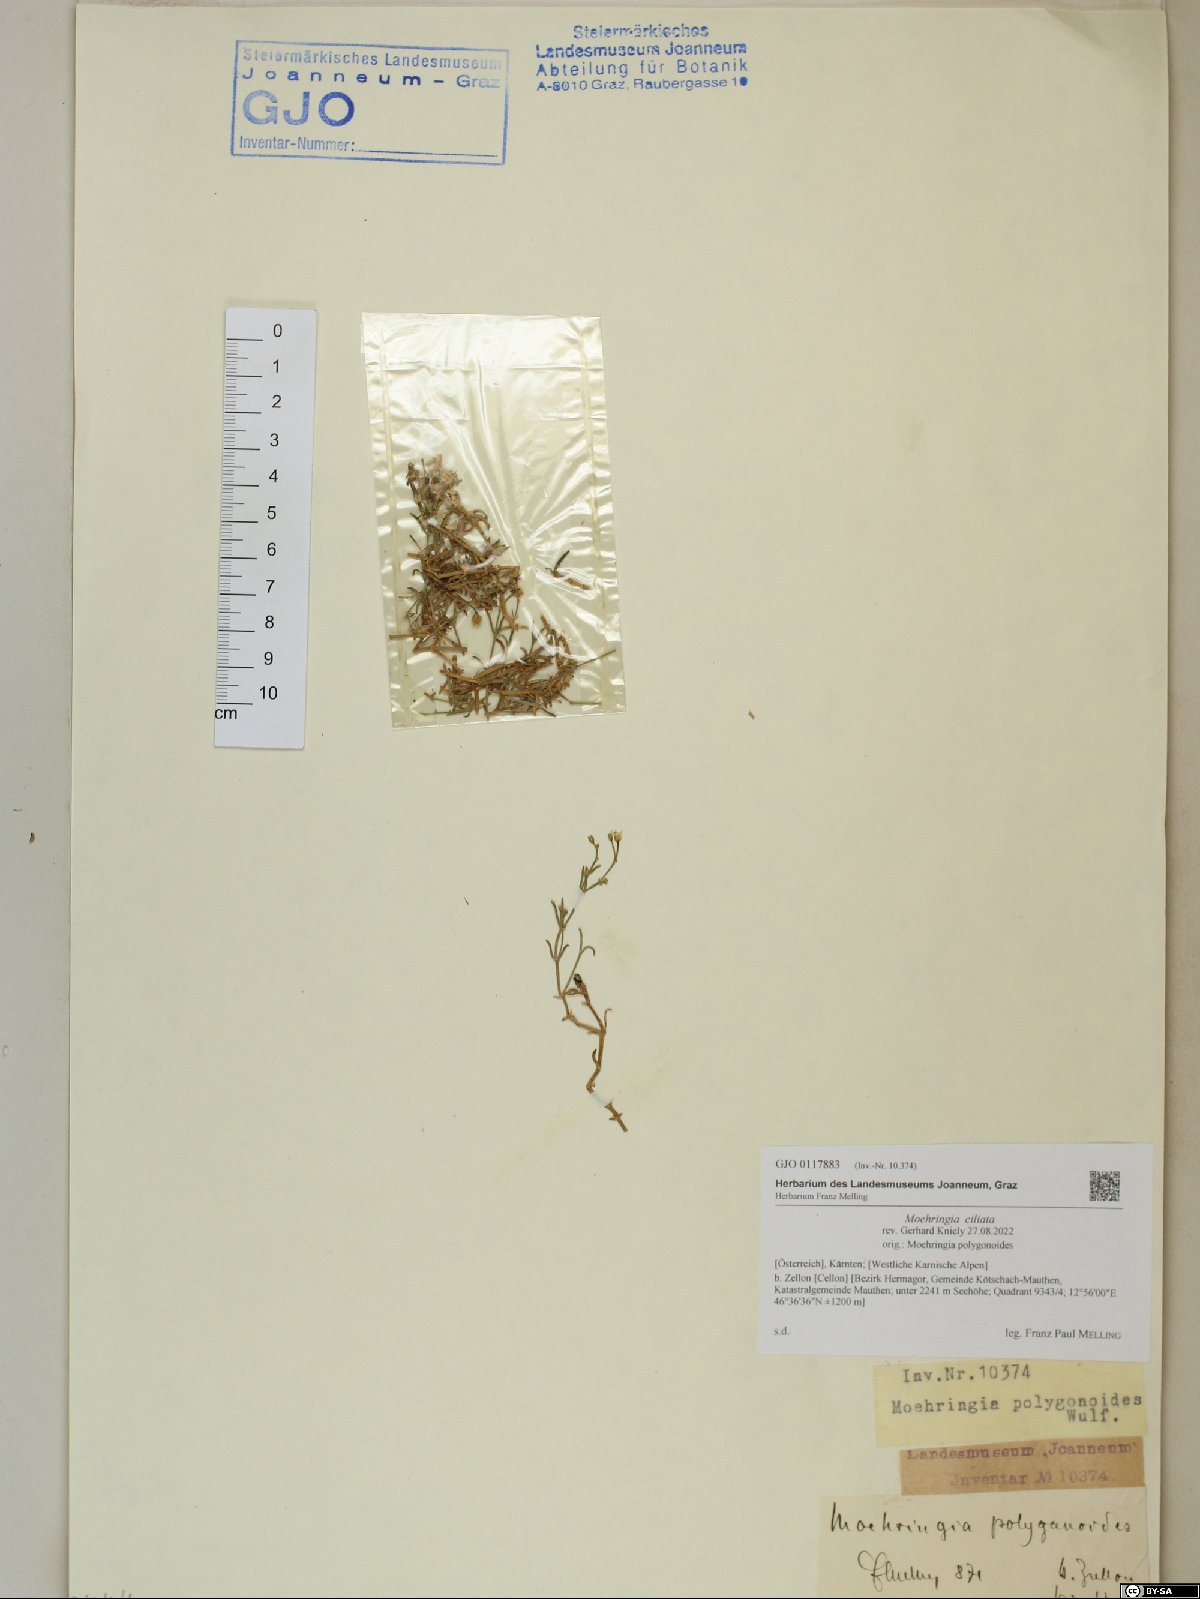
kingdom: Plantae
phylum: Tracheophyta
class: Magnoliopsida
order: Caryophyllales
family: Caryophyllaceae
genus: Moehringia
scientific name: Moehringia ciliata
